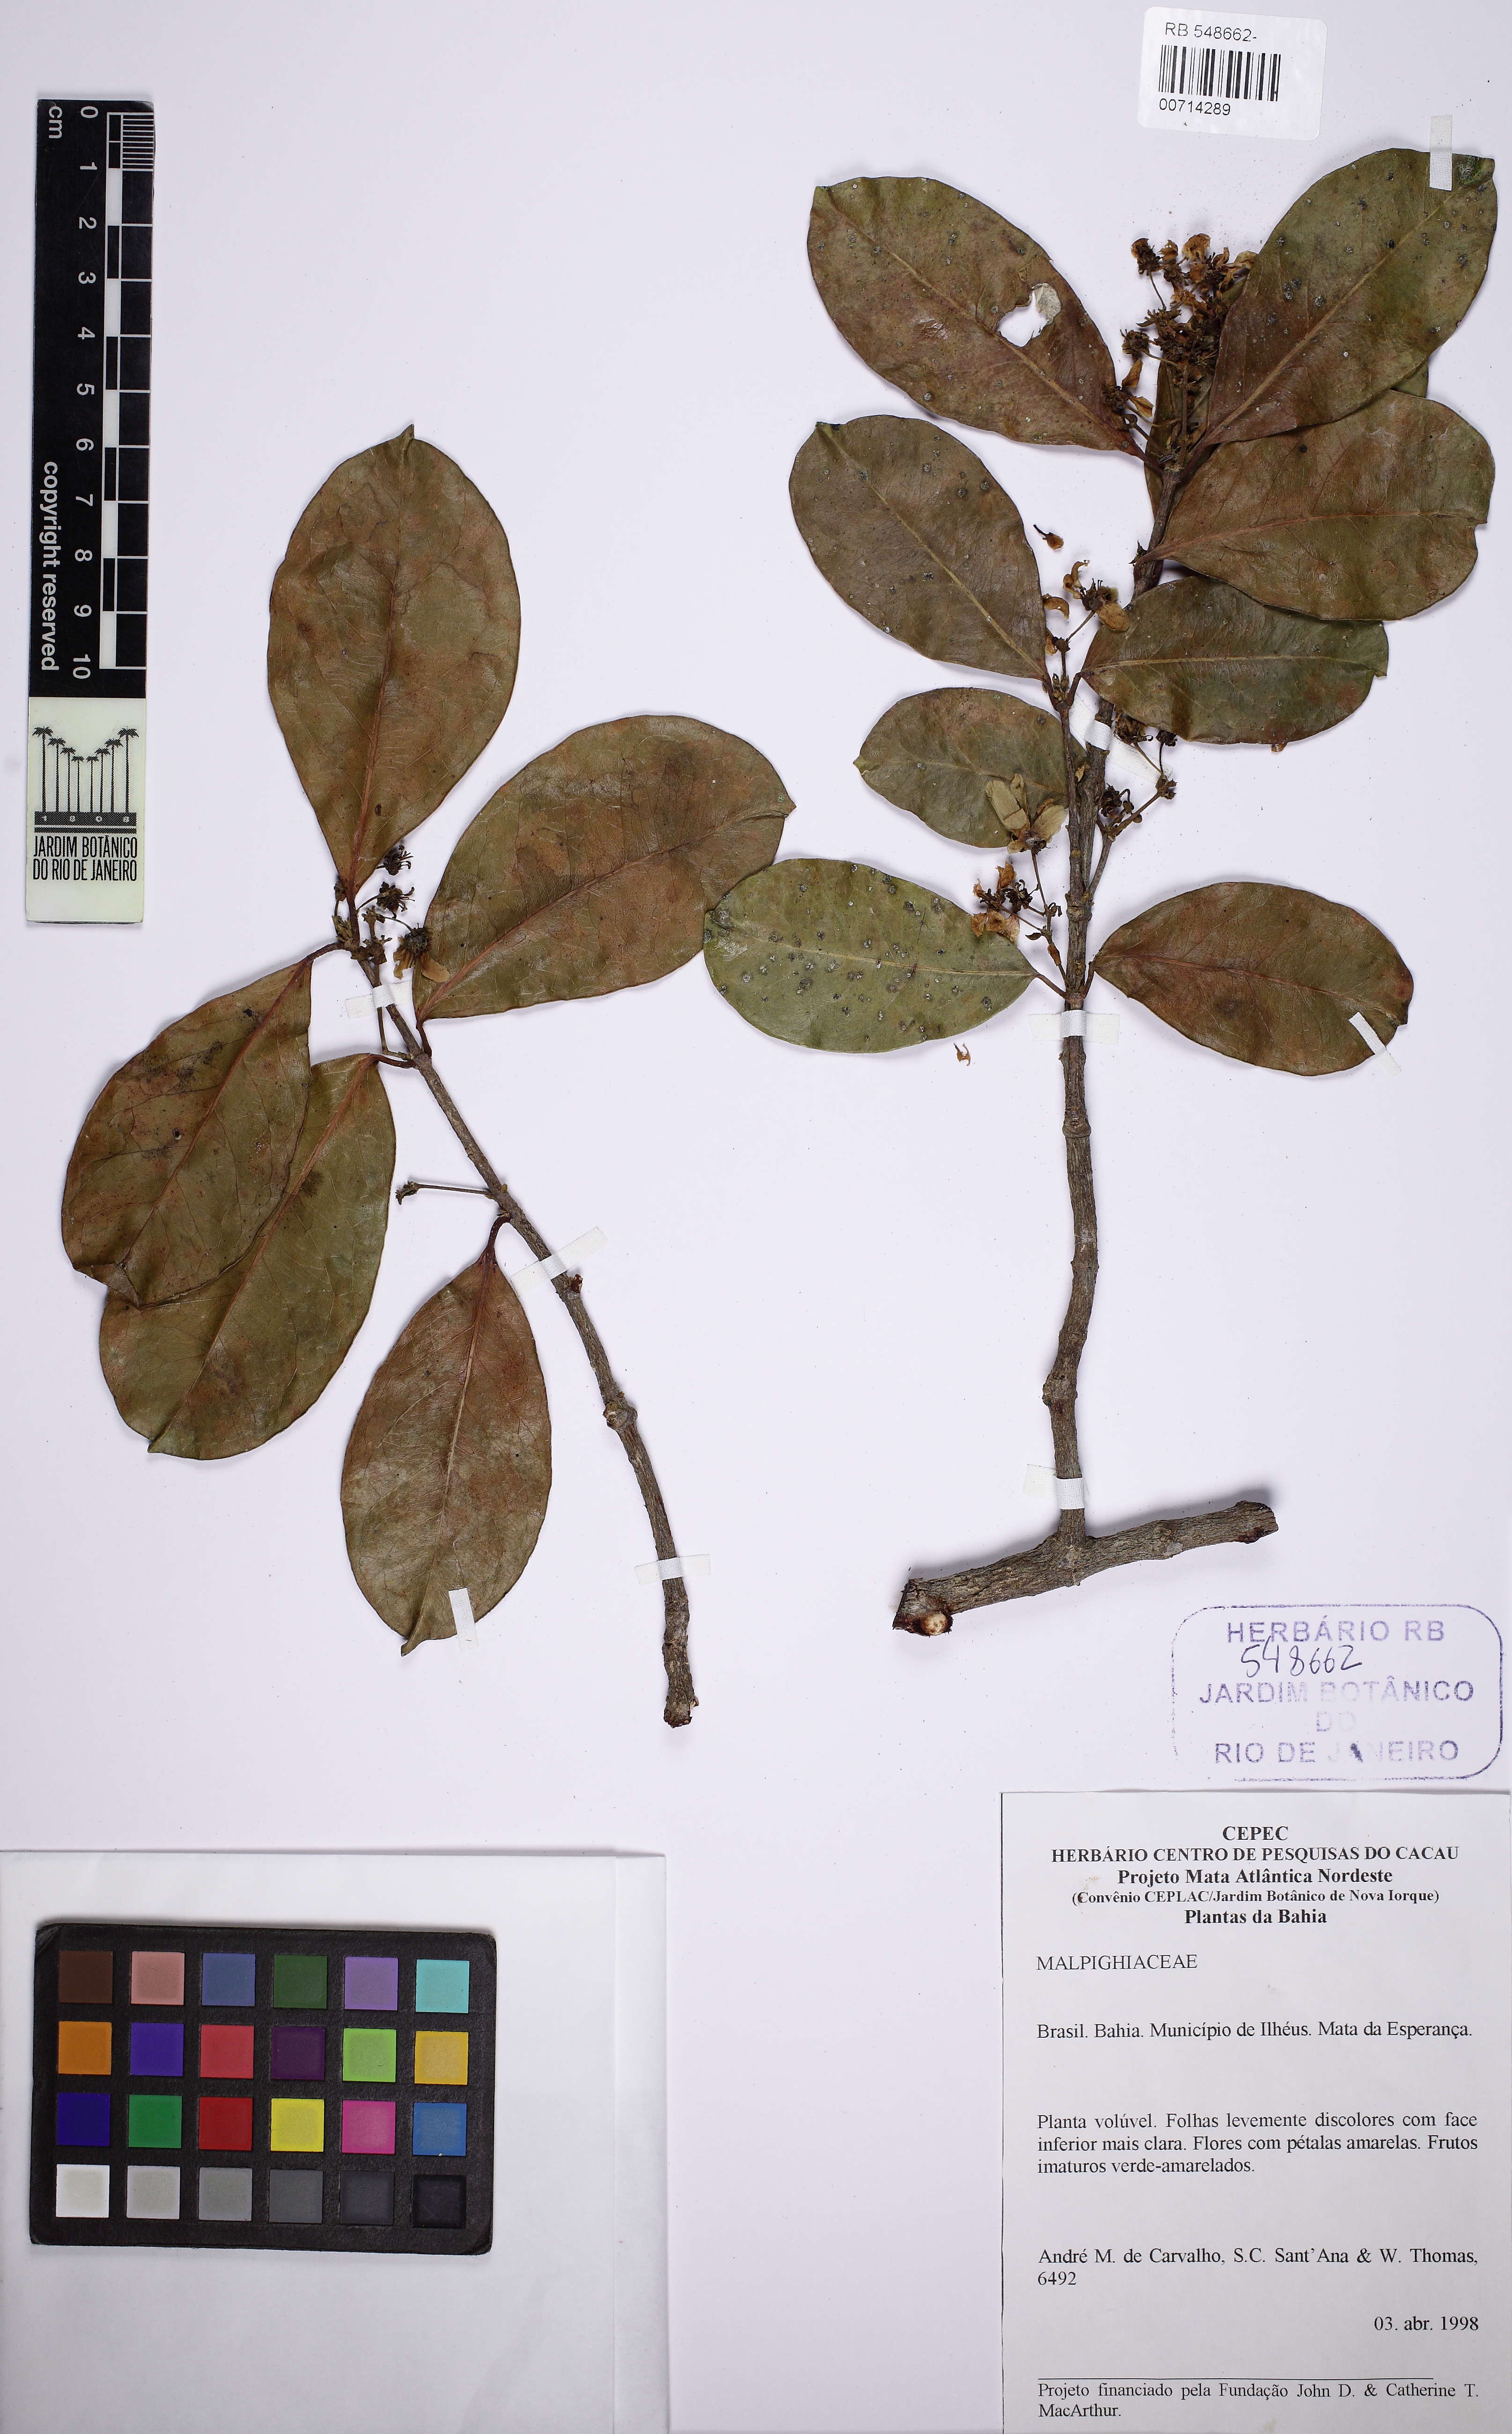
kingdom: Plantae
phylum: Tracheophyta
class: Magnoliopsida
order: Malpighiales
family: Malpighiaceae
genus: Tetrapterys
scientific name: Tetrapterys
